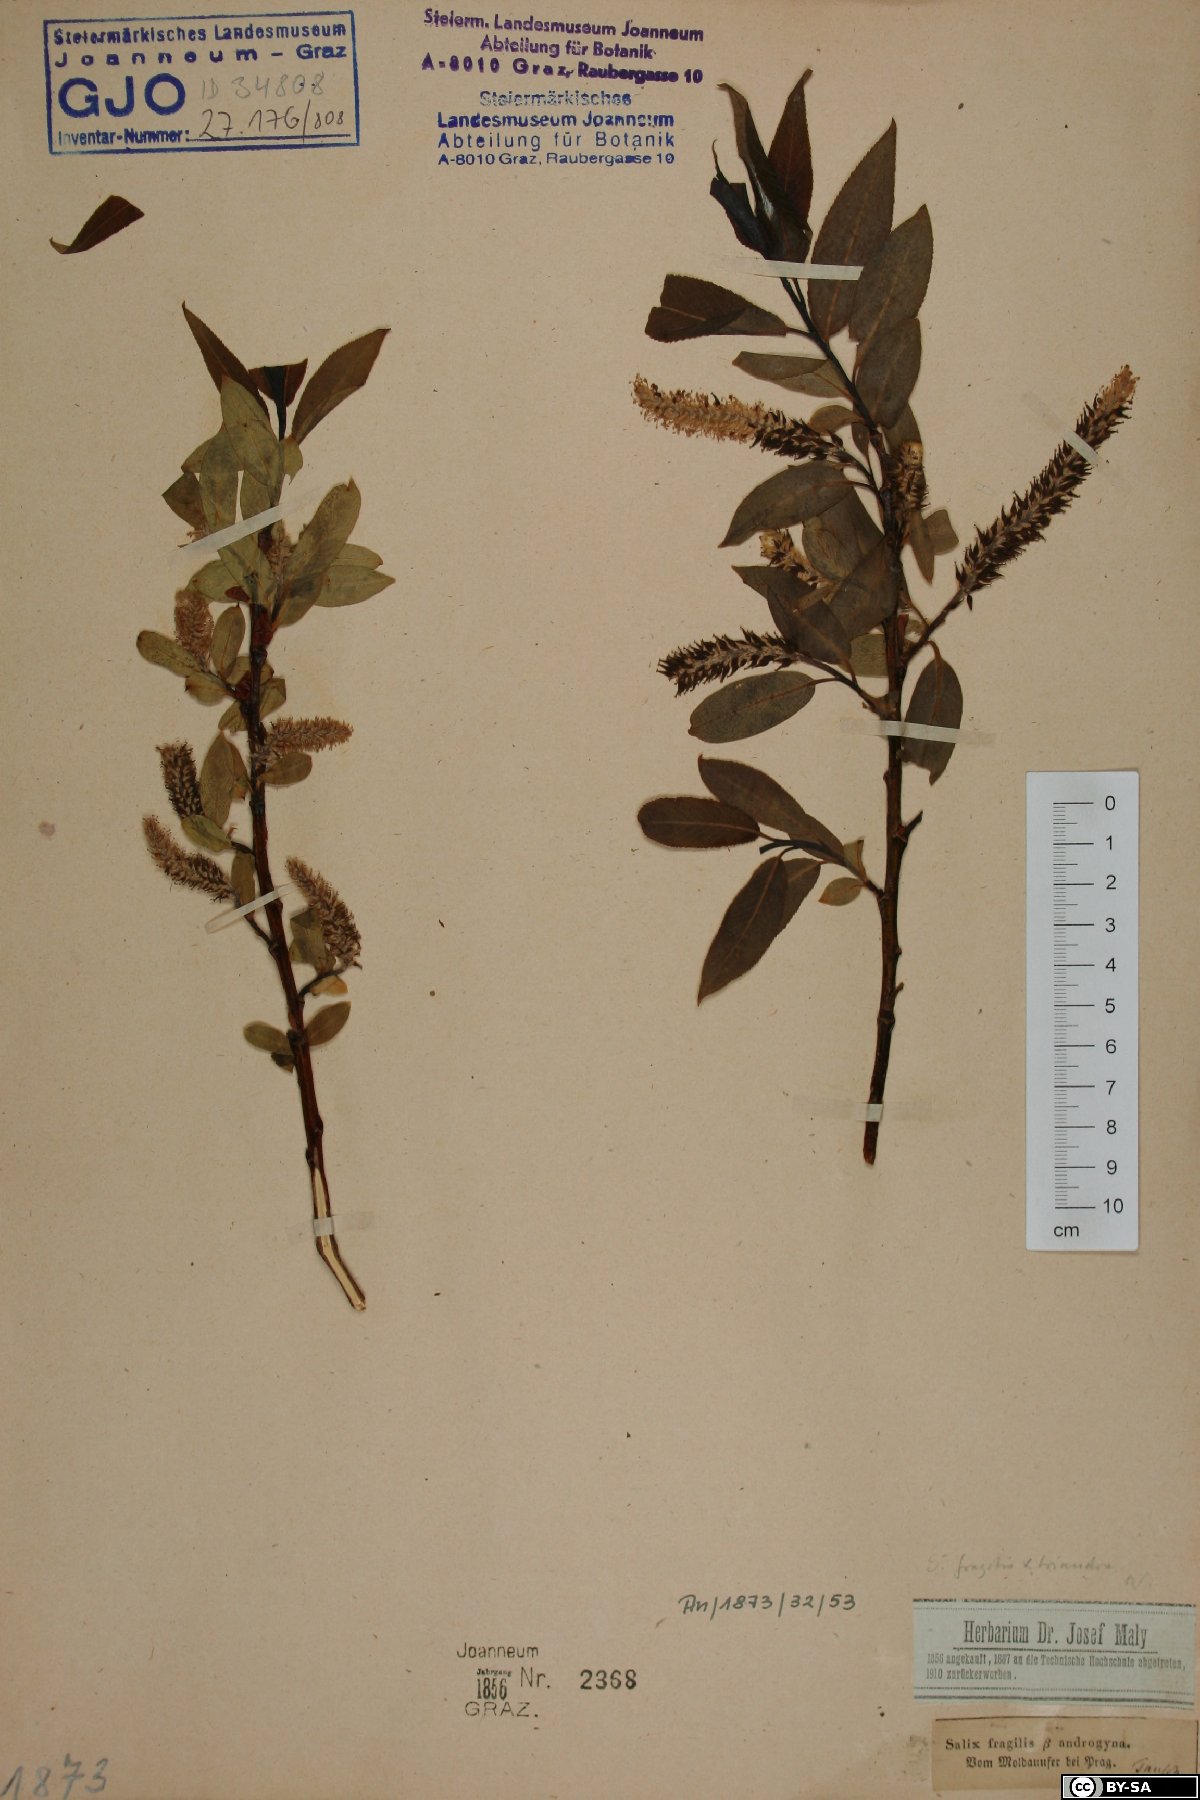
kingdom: Plantae
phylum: Tracheophyta
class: Magnoliopsida
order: Malpighiales
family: Salicaceae
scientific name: Salicaceae
